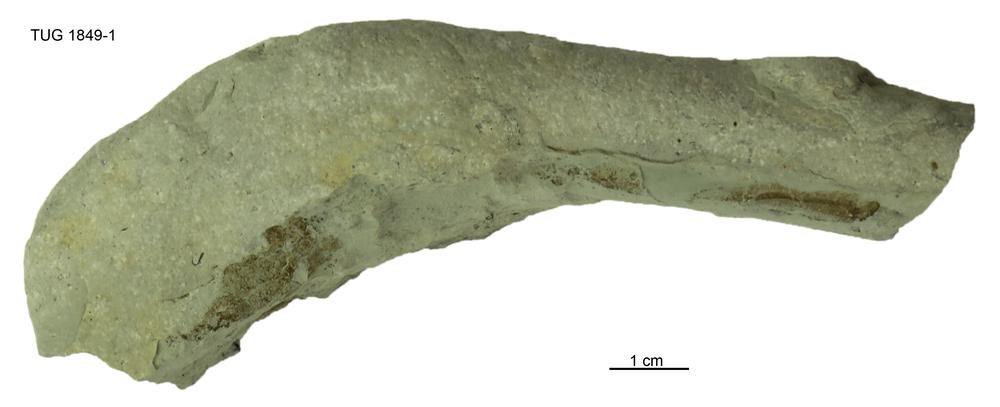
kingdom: Animalia
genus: Palaeophycus
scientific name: Palaeophycus tubularis
